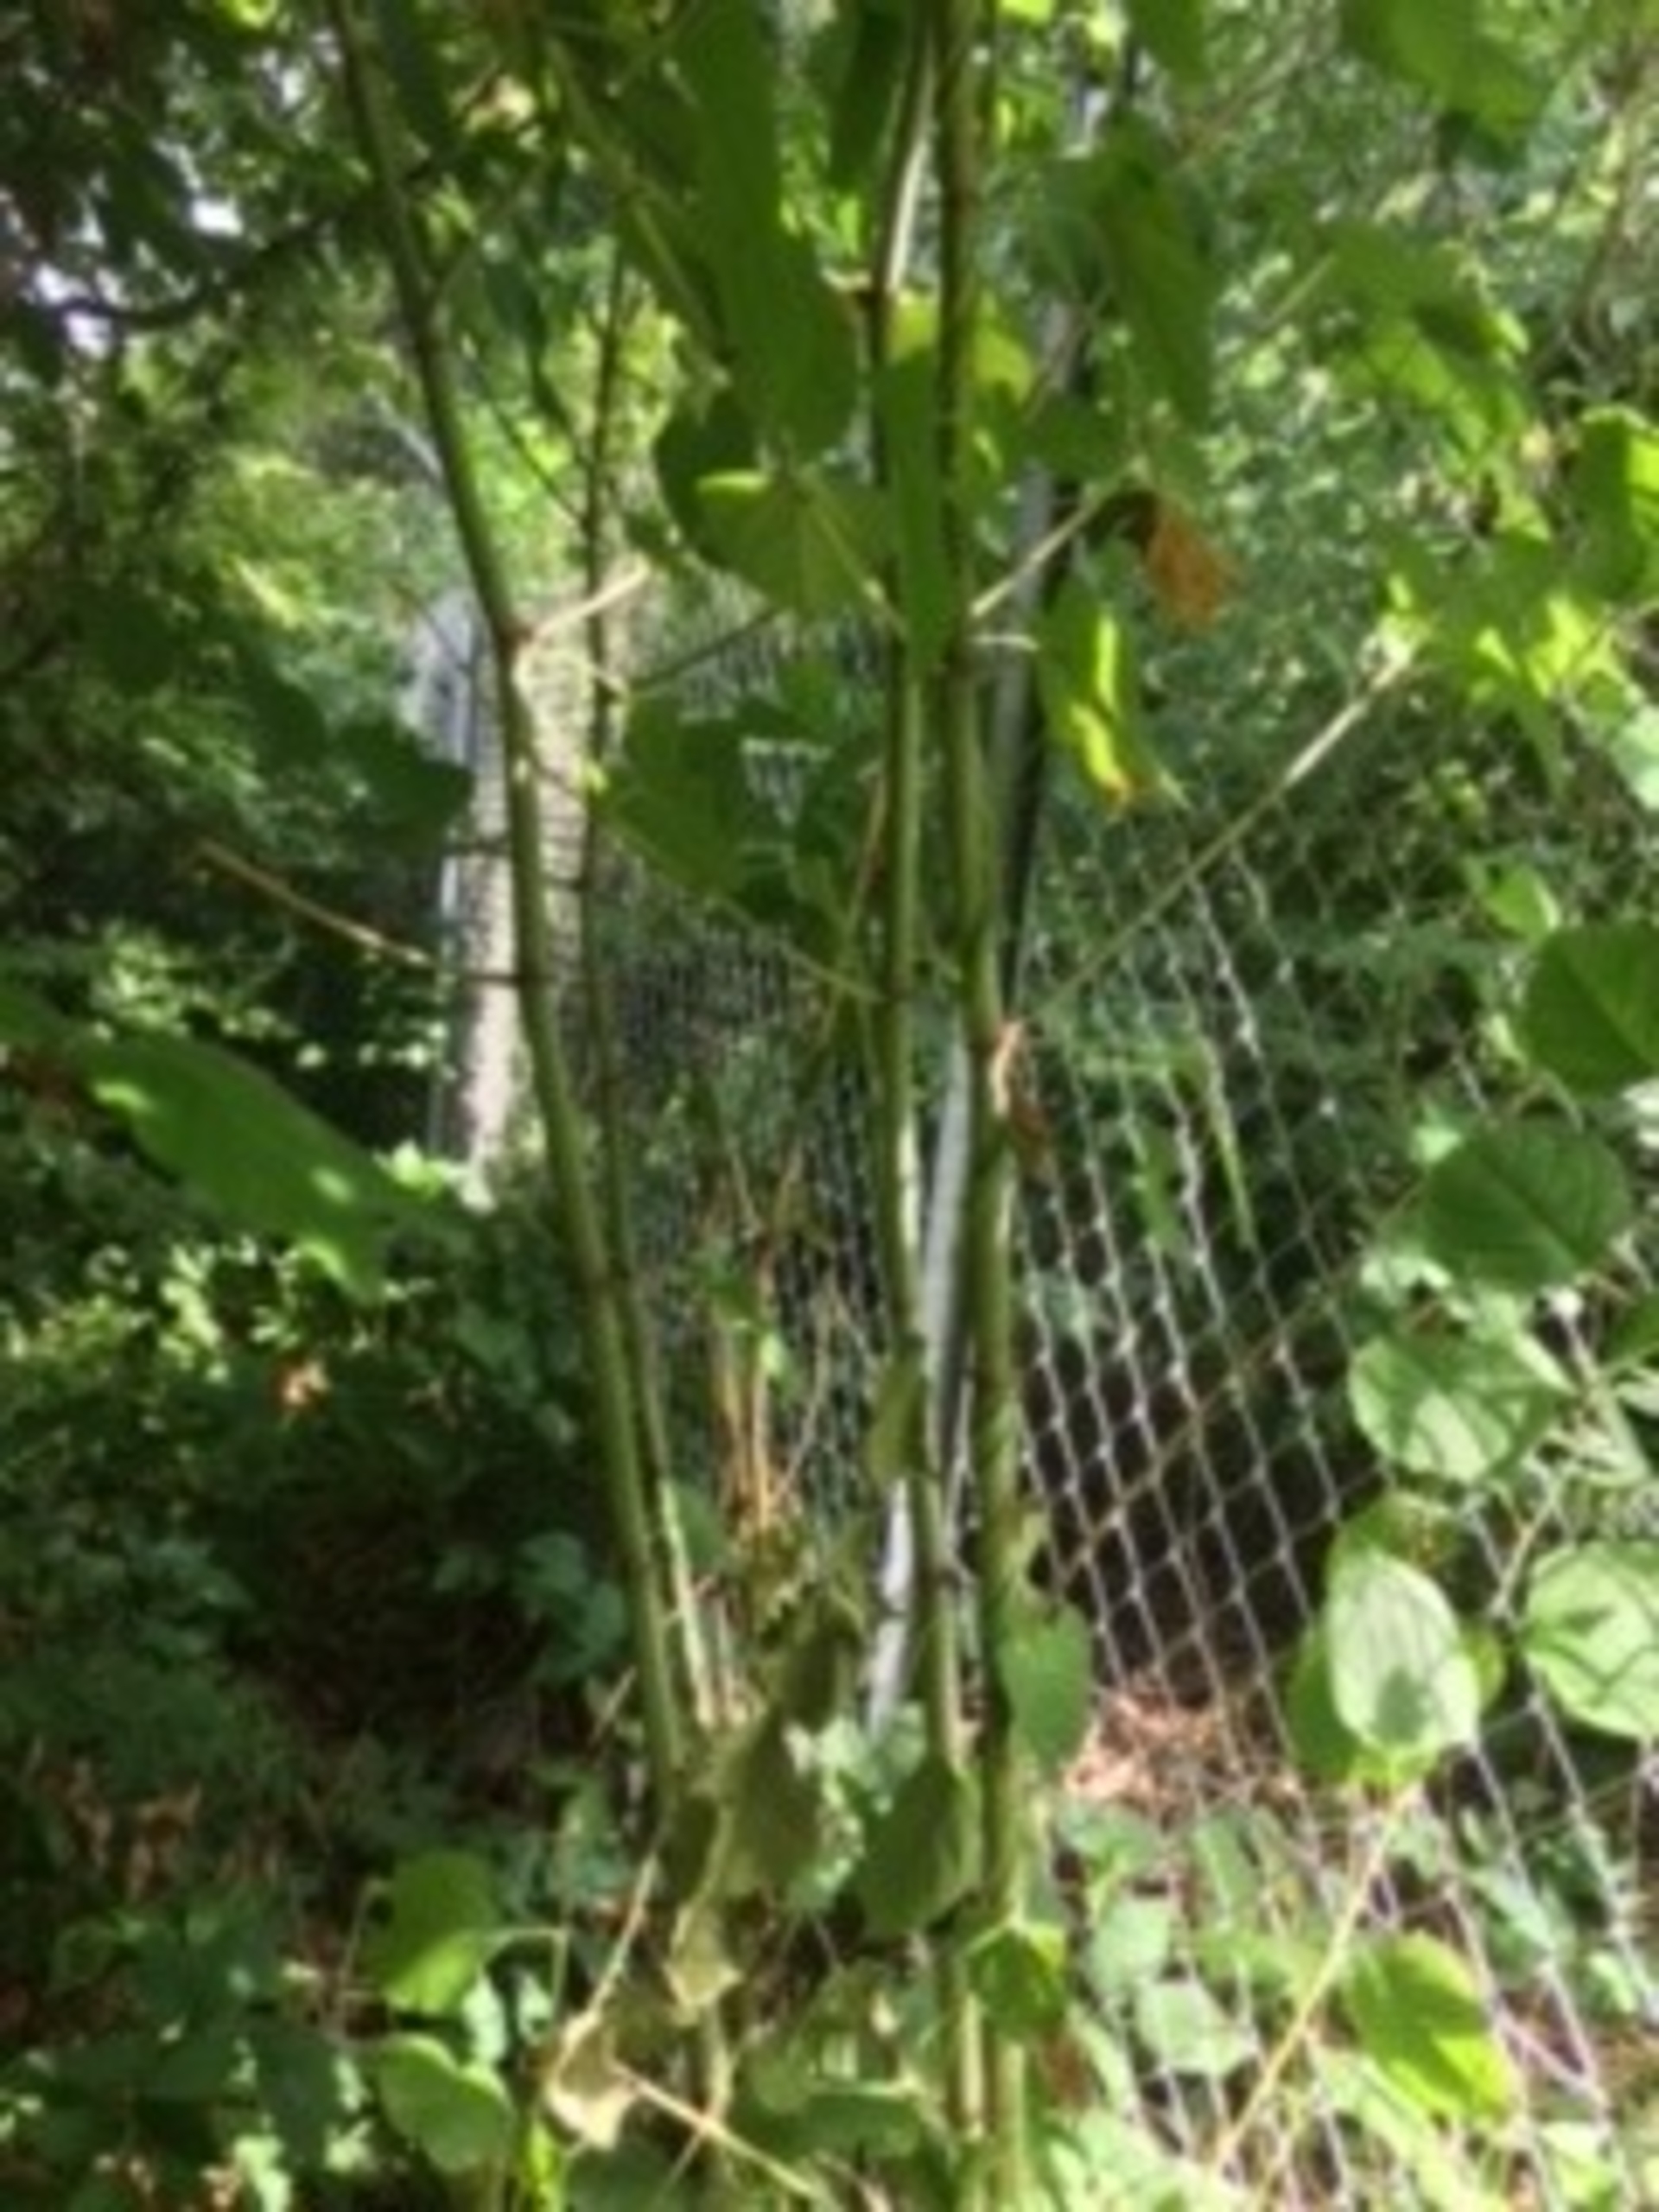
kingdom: Plantae
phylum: Tracheophyta
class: Magnoliopsida
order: Caryophyllales
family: Polygonaceae
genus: Reynoutria
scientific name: Reynoutria japonica
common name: Japan-pileurt
